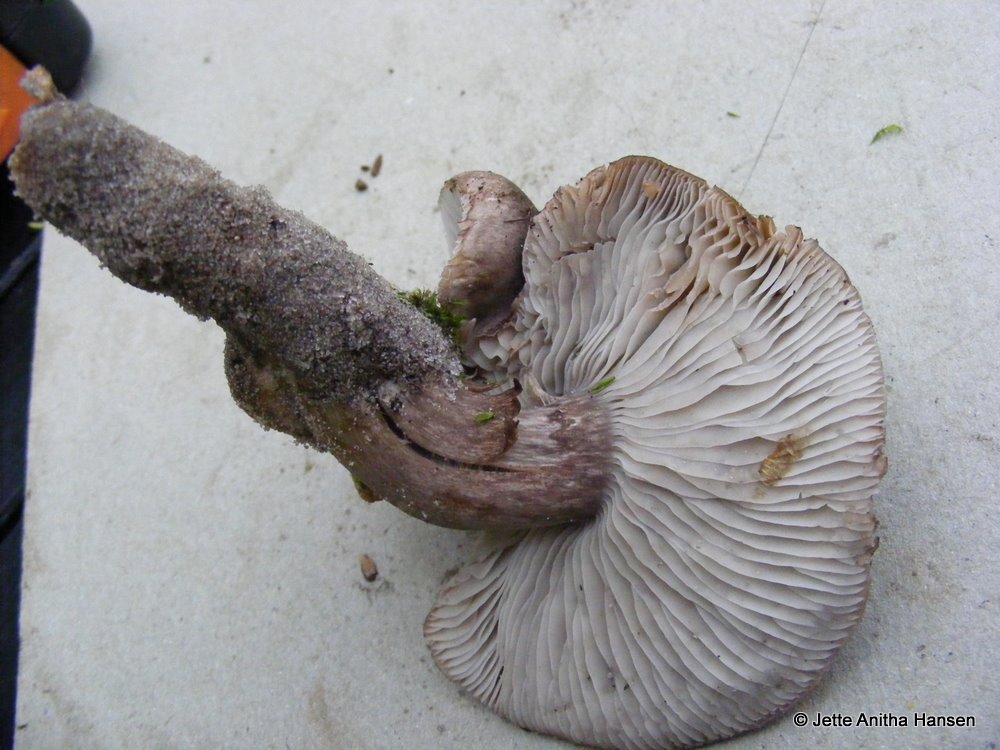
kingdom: Fungi
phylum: Basidiomycota
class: Agaricomycetes
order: Agaricales
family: Tricholomataceae
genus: Tricholoma
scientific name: Tricholoma sudum
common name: tør ridderhat
